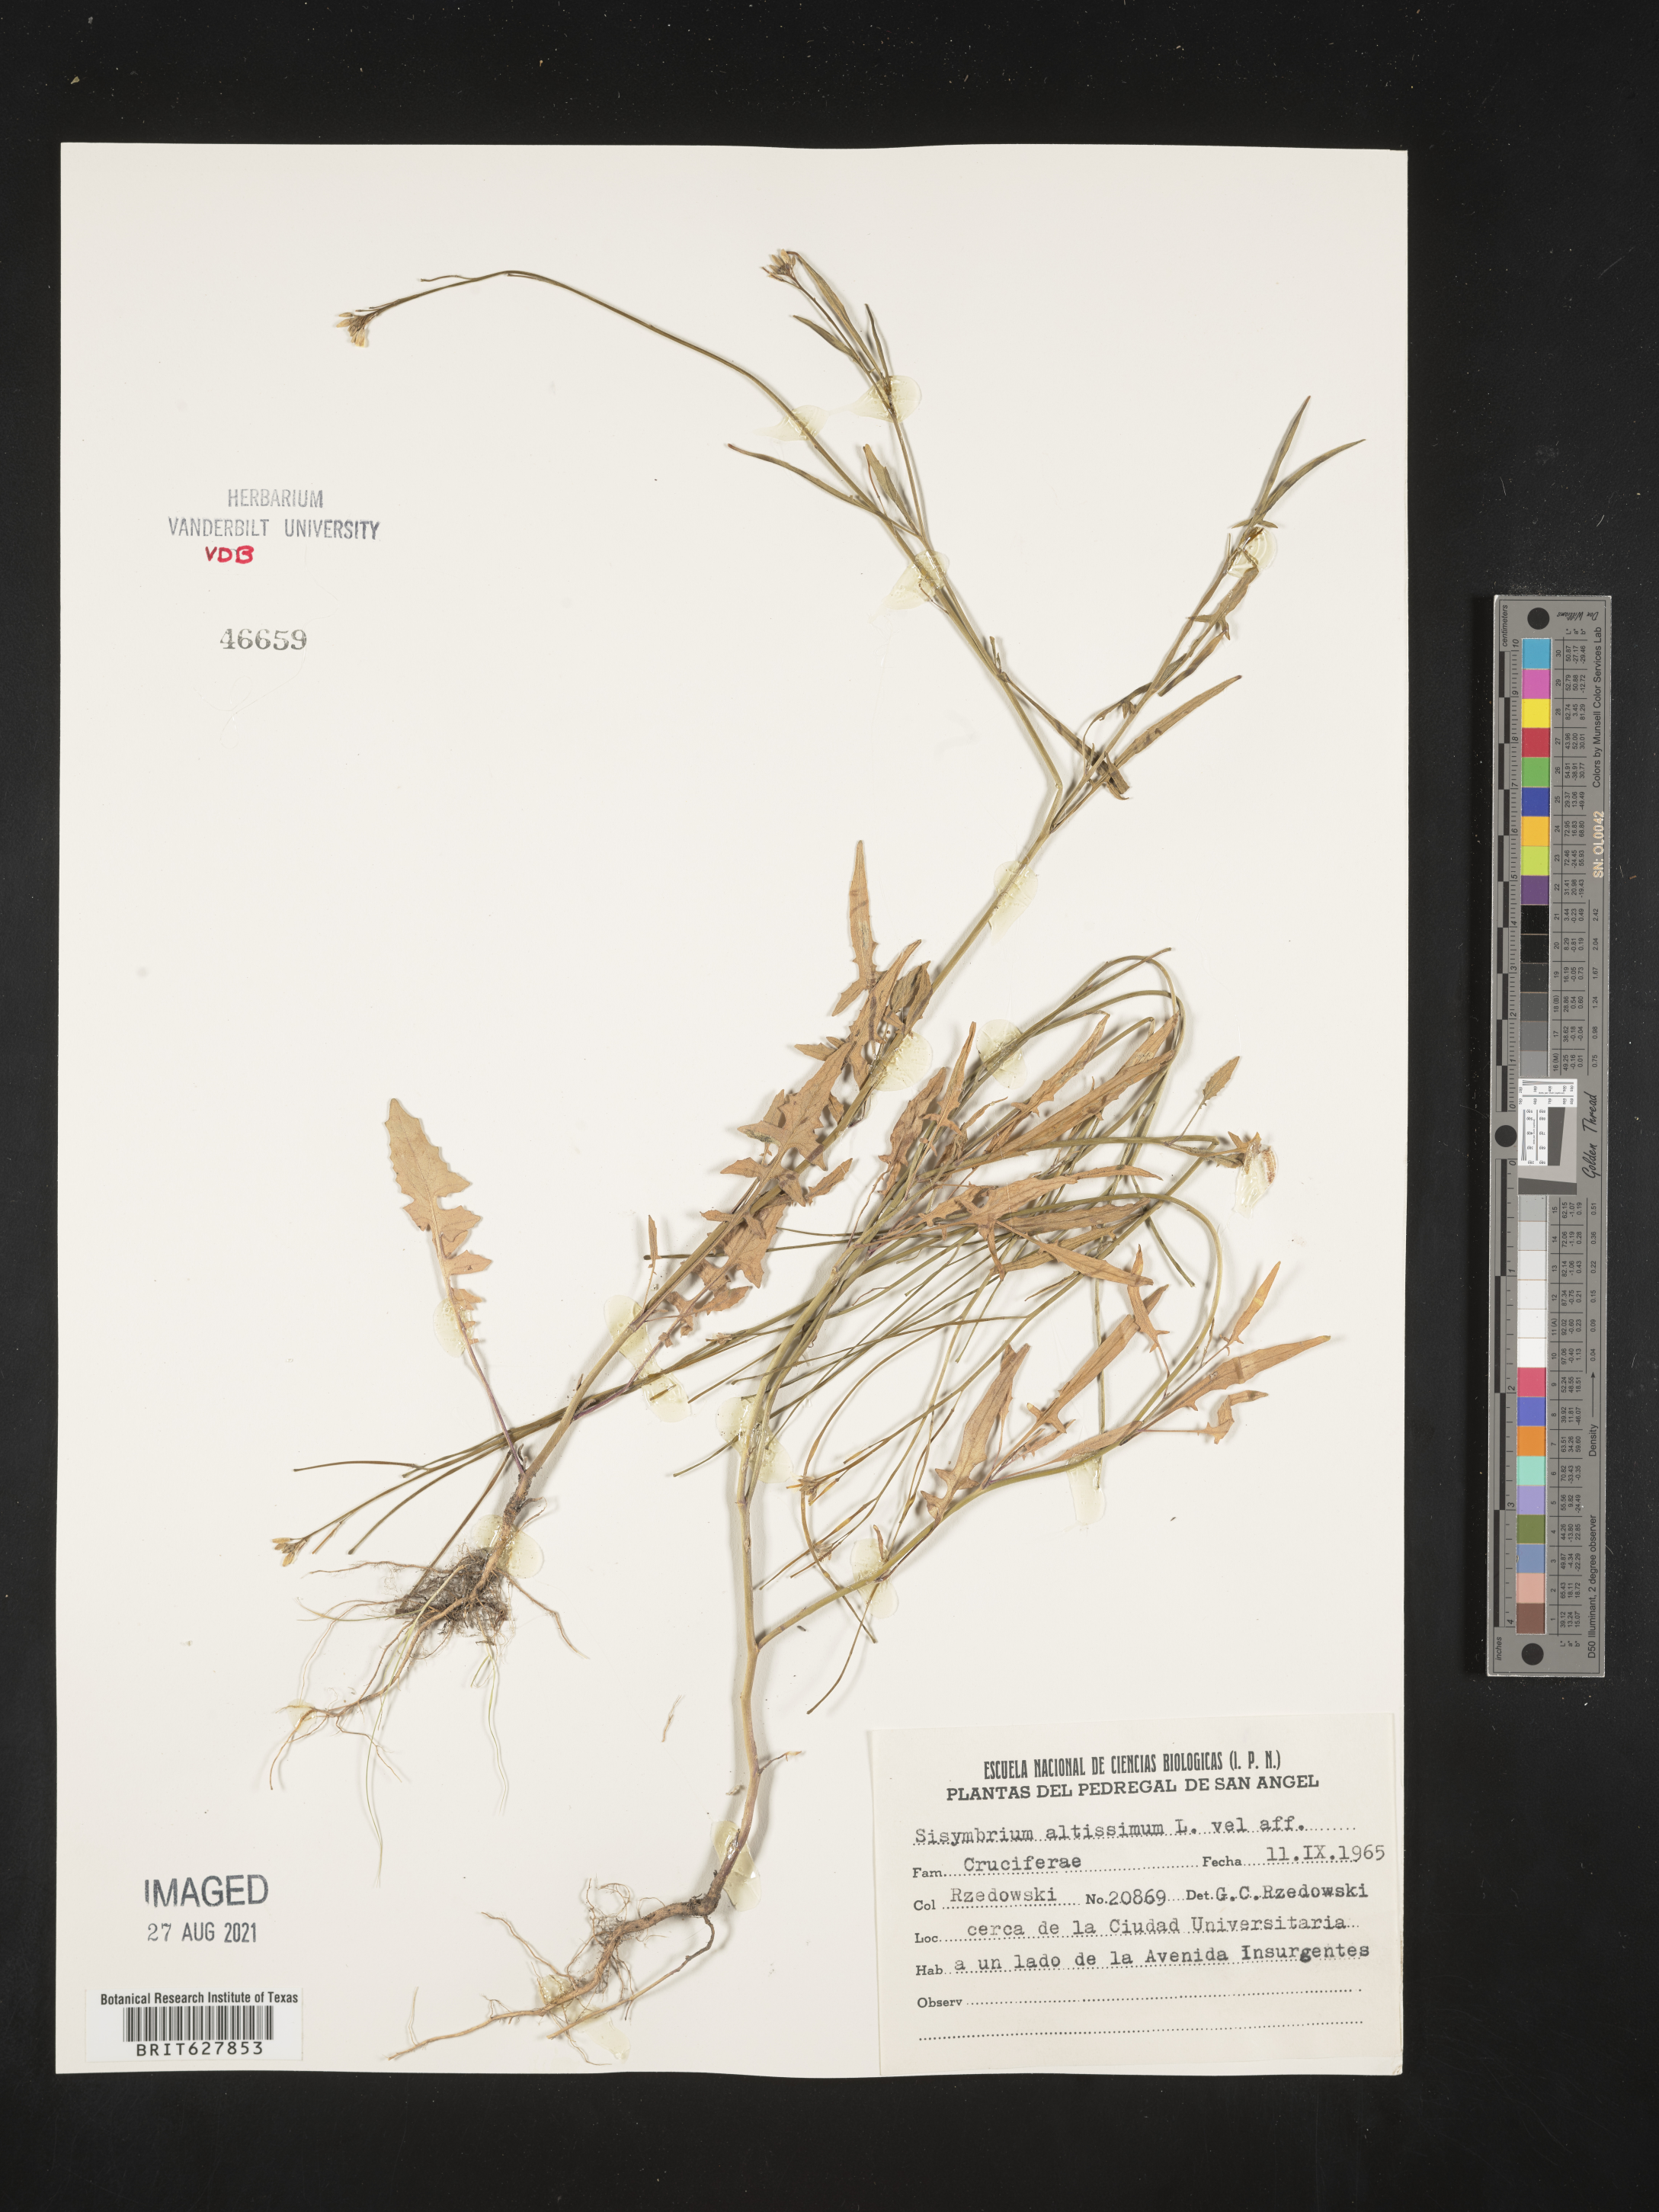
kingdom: Plantae
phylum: Tracheophyta
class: Magnoliopsida
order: Brassicales
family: Brassicaceae
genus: Sisymbrium
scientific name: Sisymbrium
